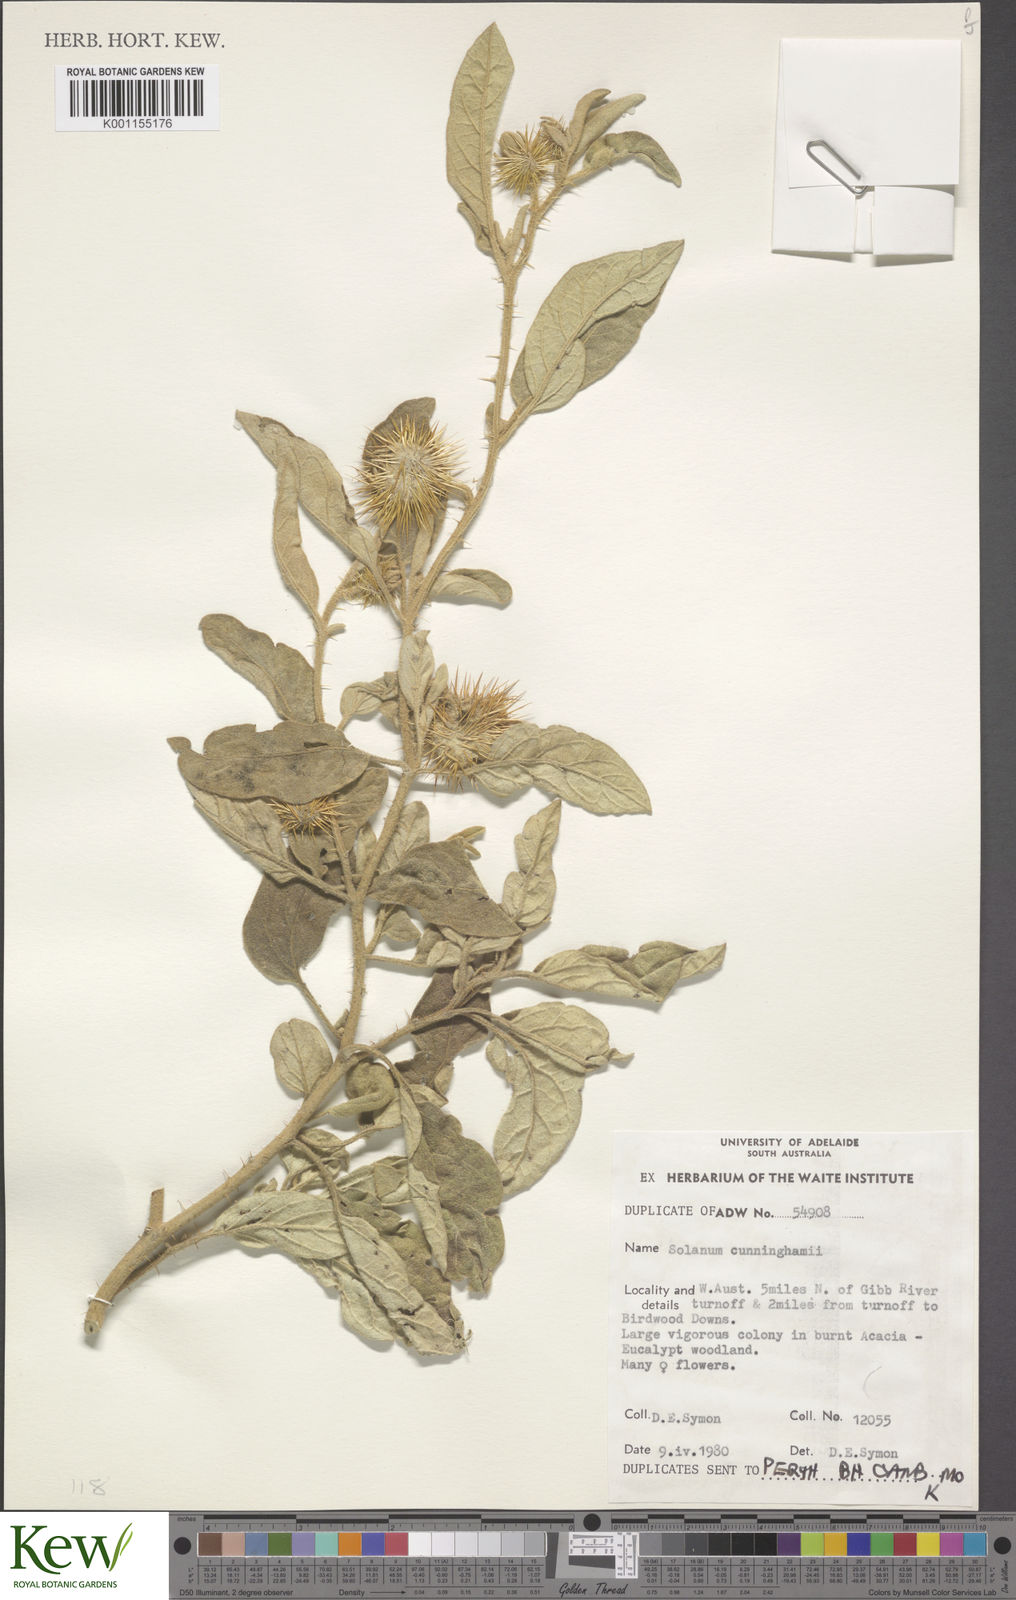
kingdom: Plantae
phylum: Tracheophyta
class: Magnoliopsida
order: Solanales
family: Solanaceae
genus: Solanum
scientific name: Solanum cunninghamii
